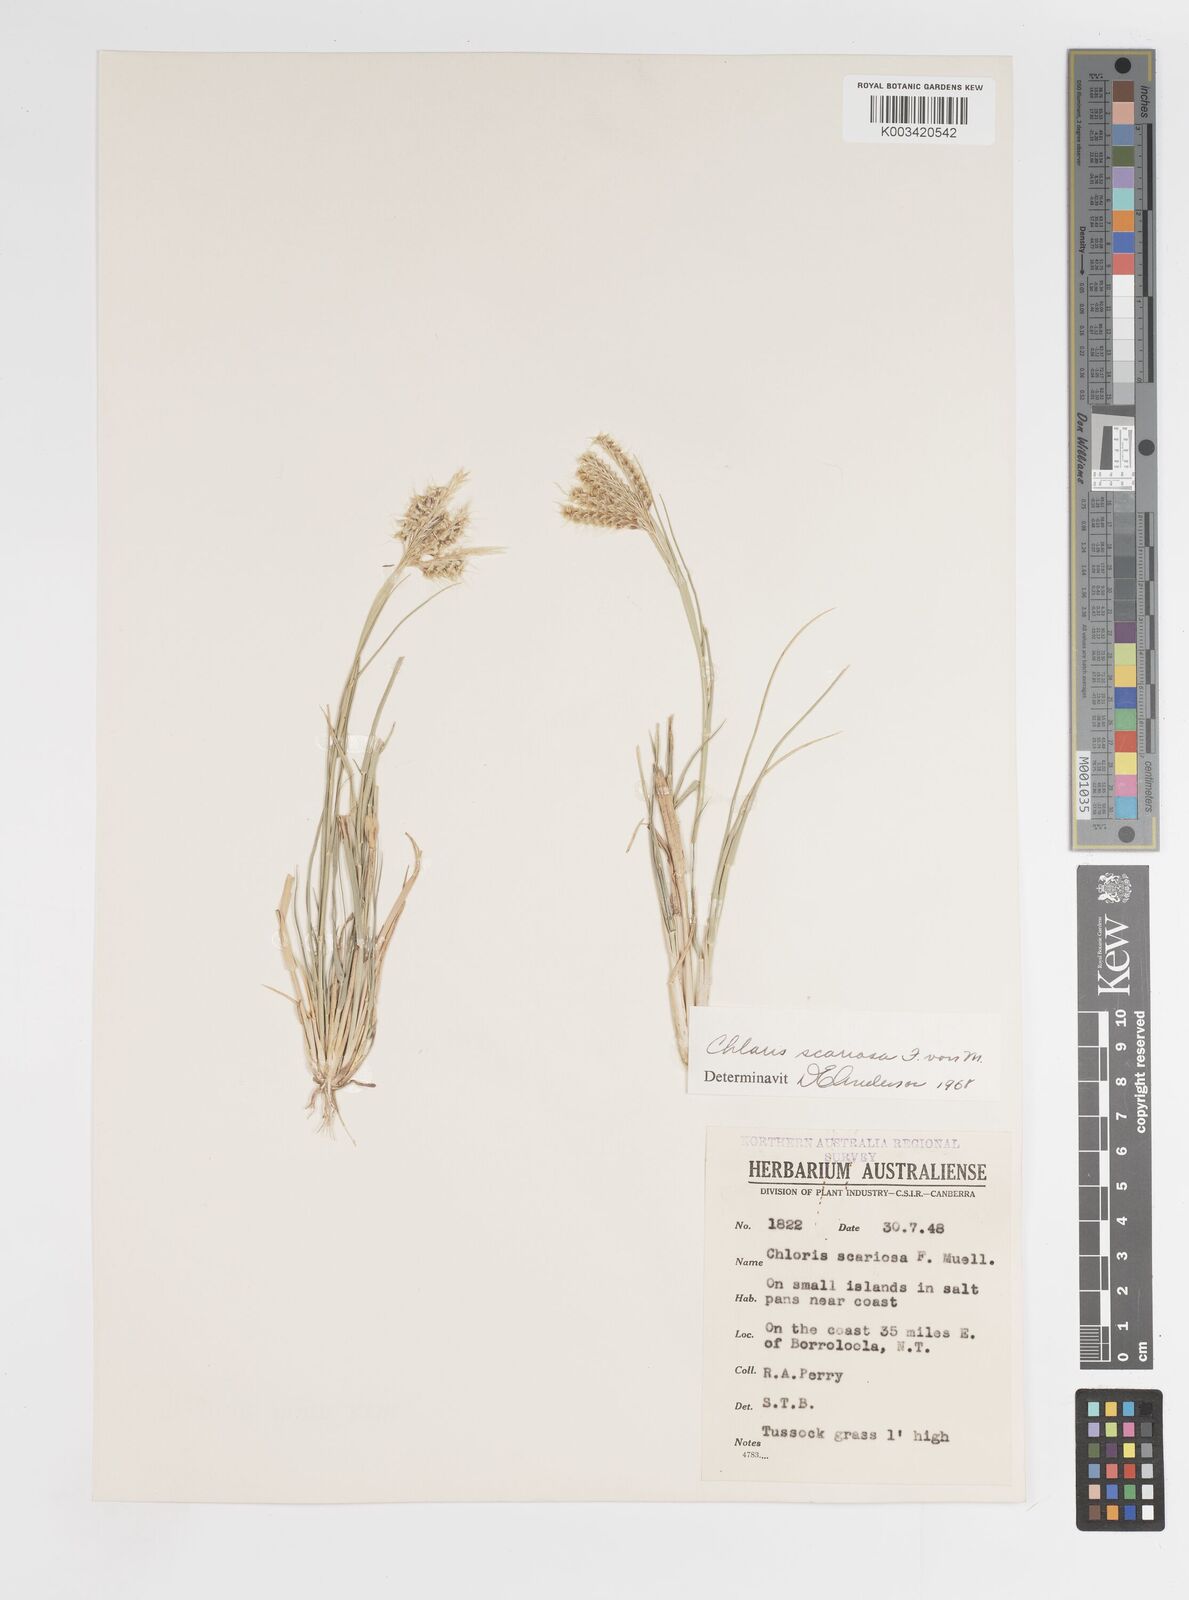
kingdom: Plantae
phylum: Tracheophyta
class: Liliopsida
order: Poales
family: Poaceae
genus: Oxychloris
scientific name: Oxychloris scariosa
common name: Winged windmill grass
